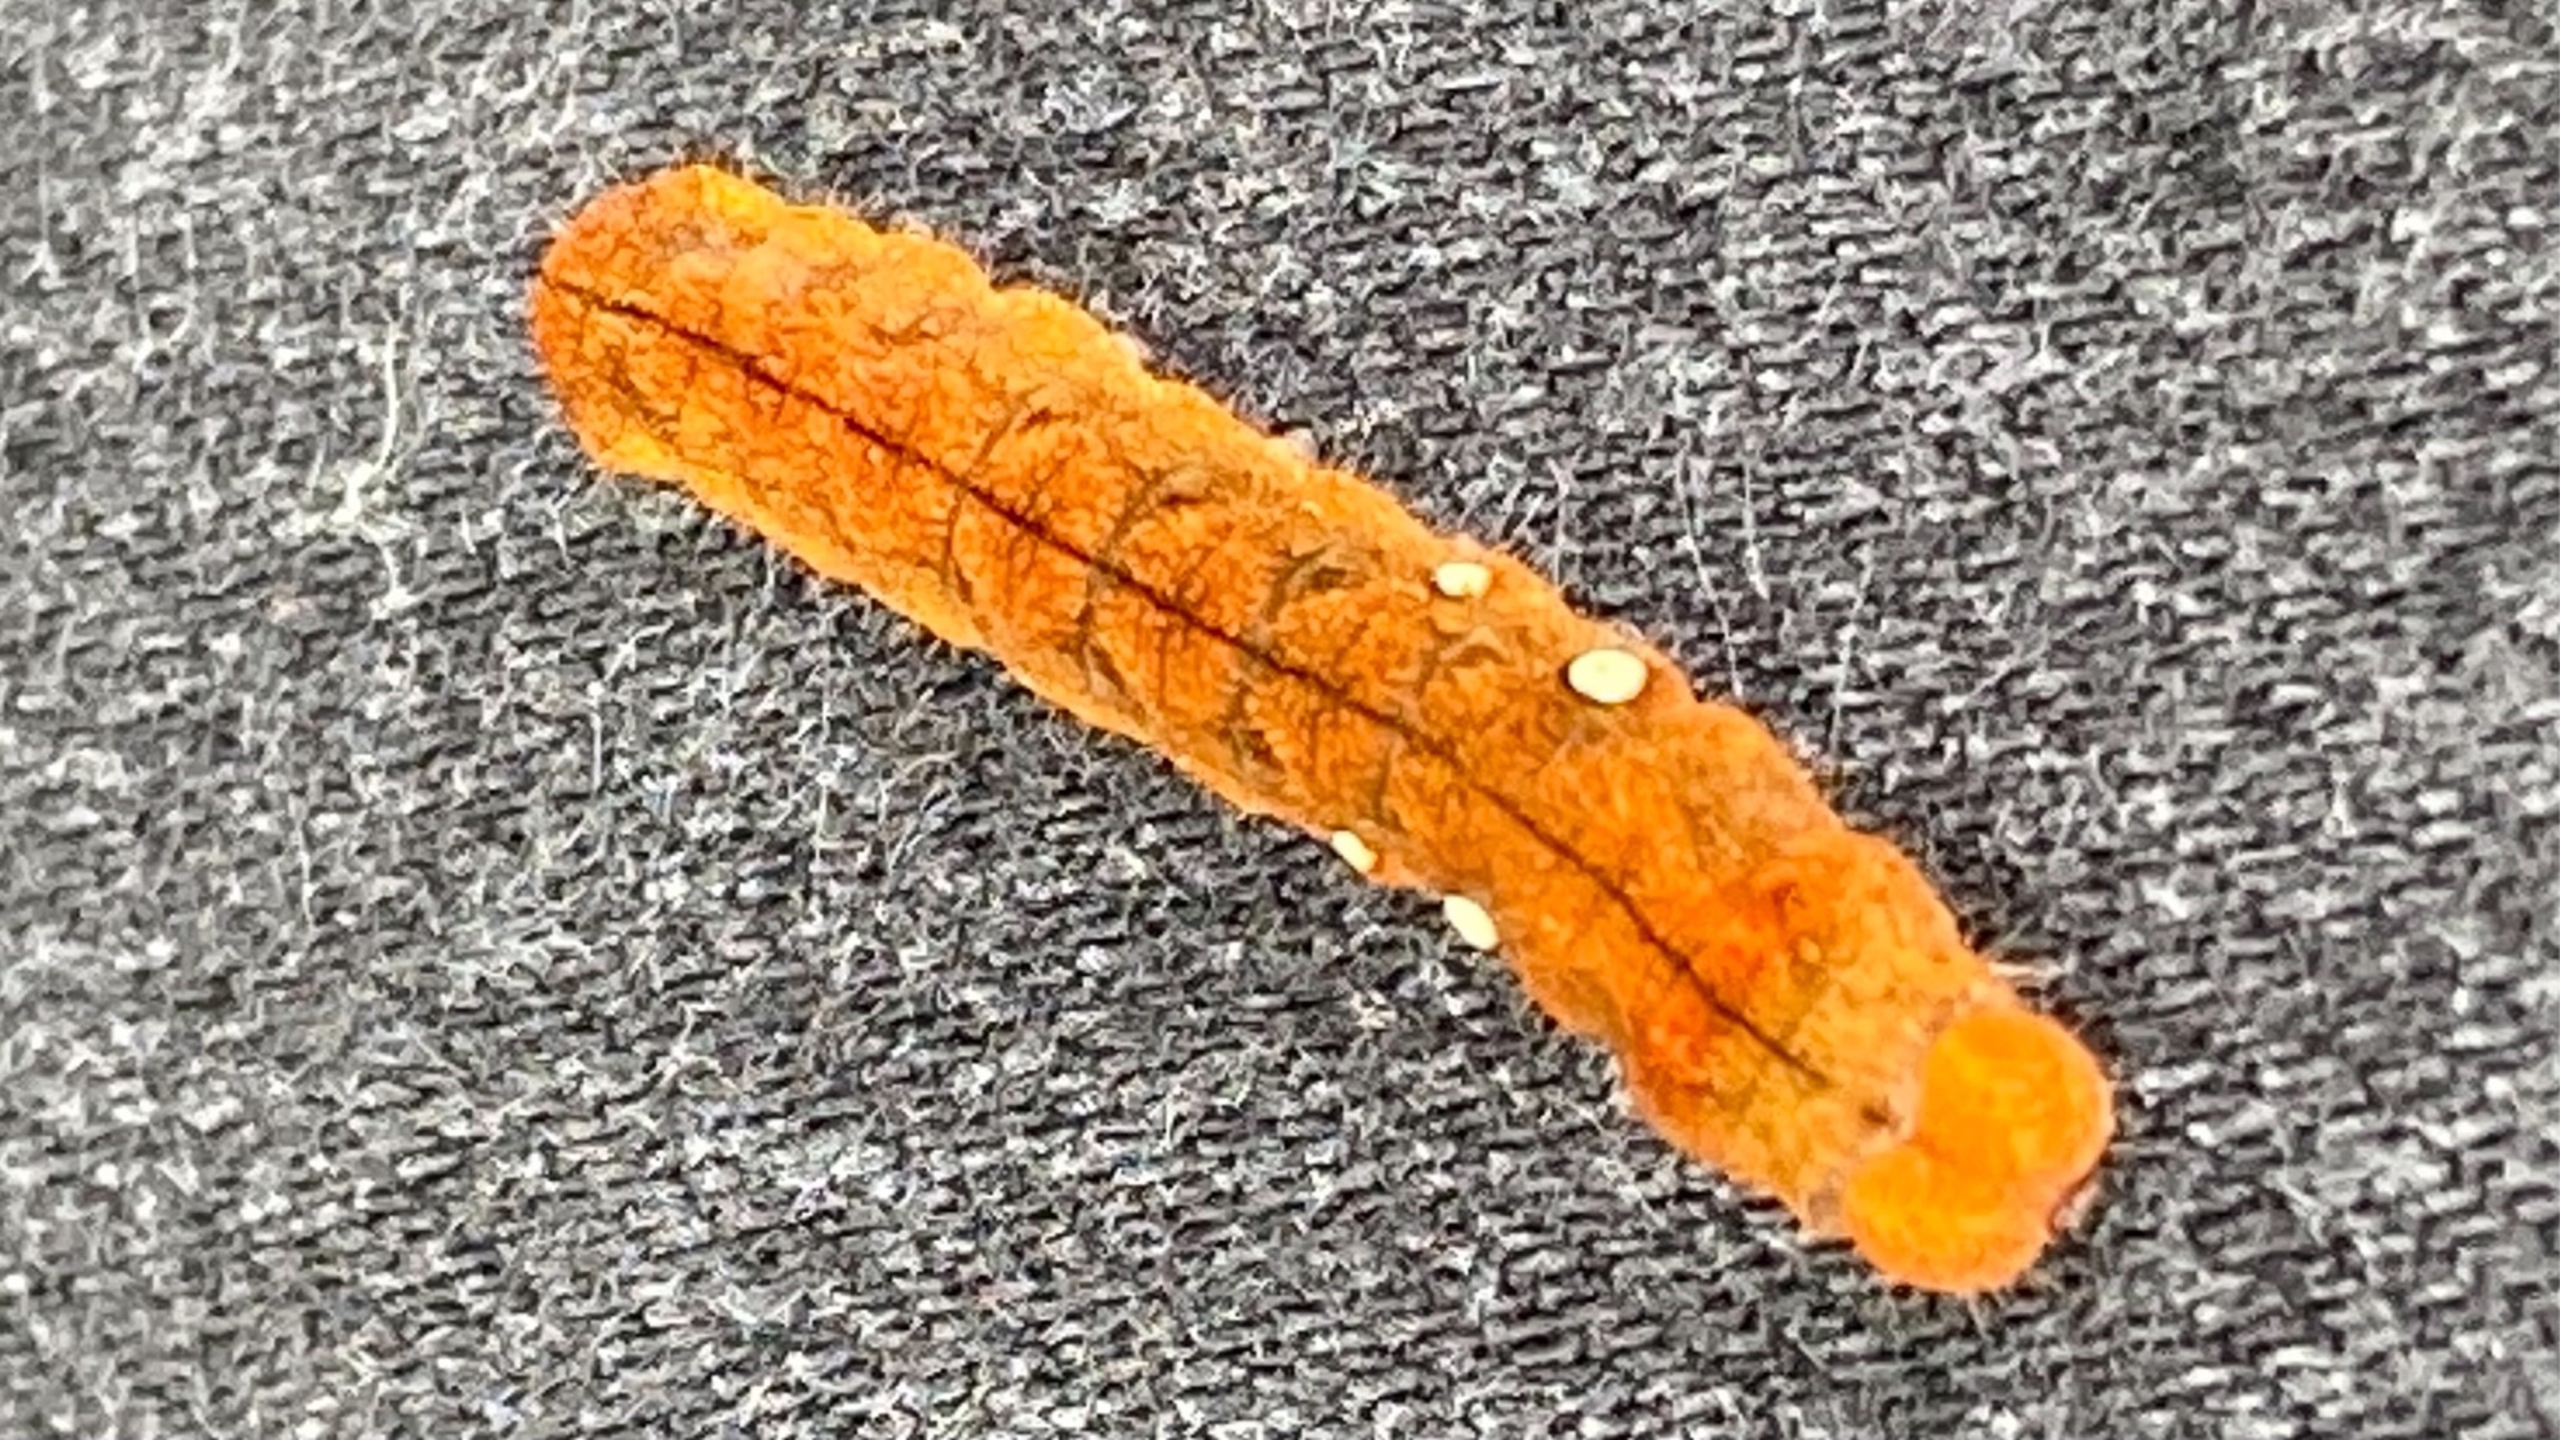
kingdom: Animalia
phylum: Arthropoda
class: Insecta
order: Lepidoptera
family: Drepanidae
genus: Habrosyne
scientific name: Habrosyne pyritoides
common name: Klyngerspinder
